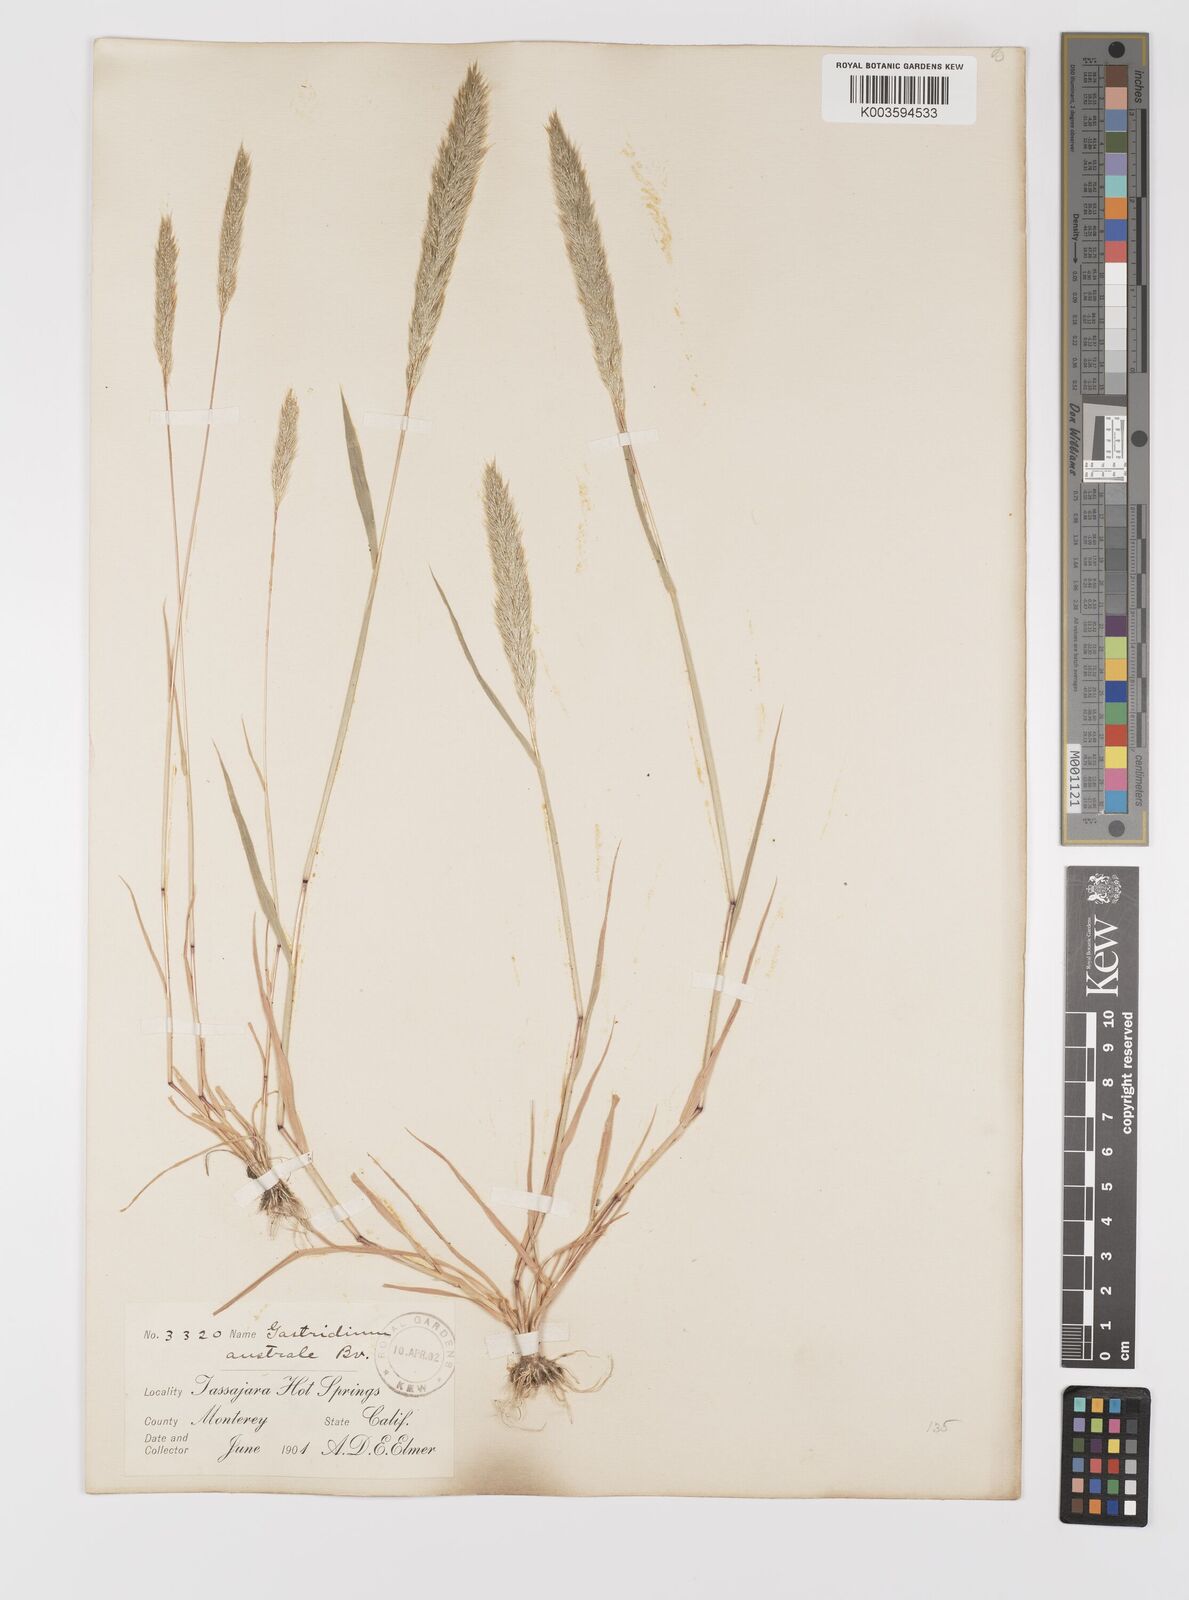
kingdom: Plantae
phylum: Tracheophyta
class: Liliopsida
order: Poales
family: Poaceae
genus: Gastridium
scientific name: Gastridium phleoides
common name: Nit grass
